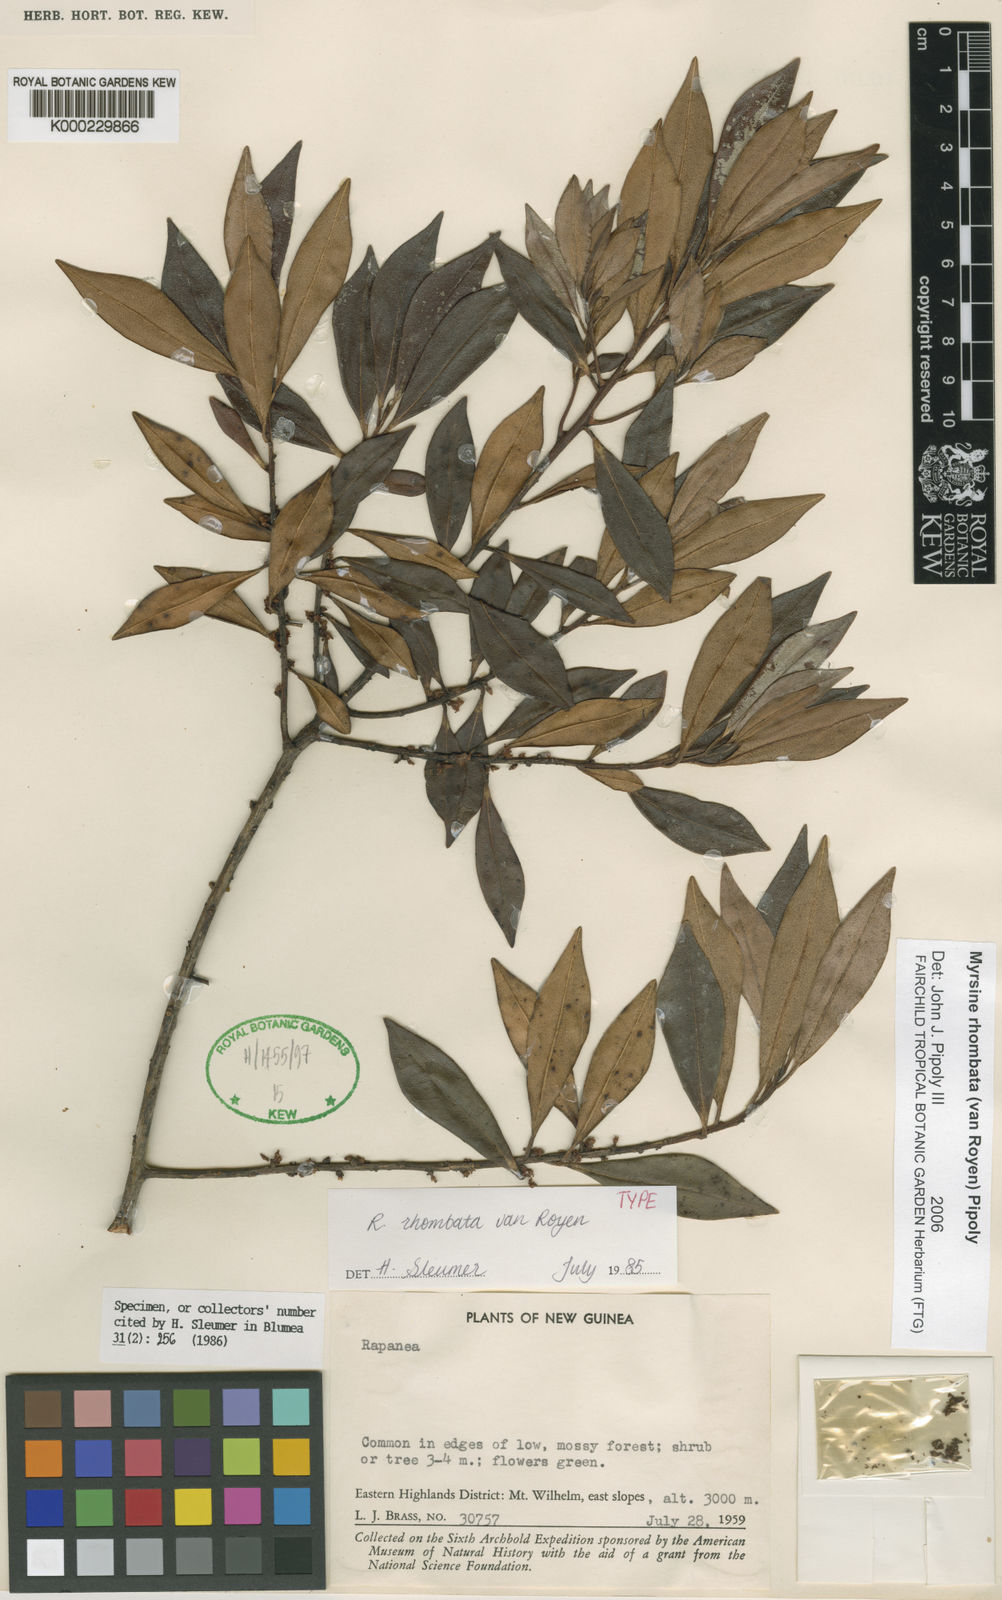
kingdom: Plantae
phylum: Tracheophyta
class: Magnoliopsida
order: Ericales
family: Primulaceae
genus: Myrsine
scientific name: Myrsine rhombata
